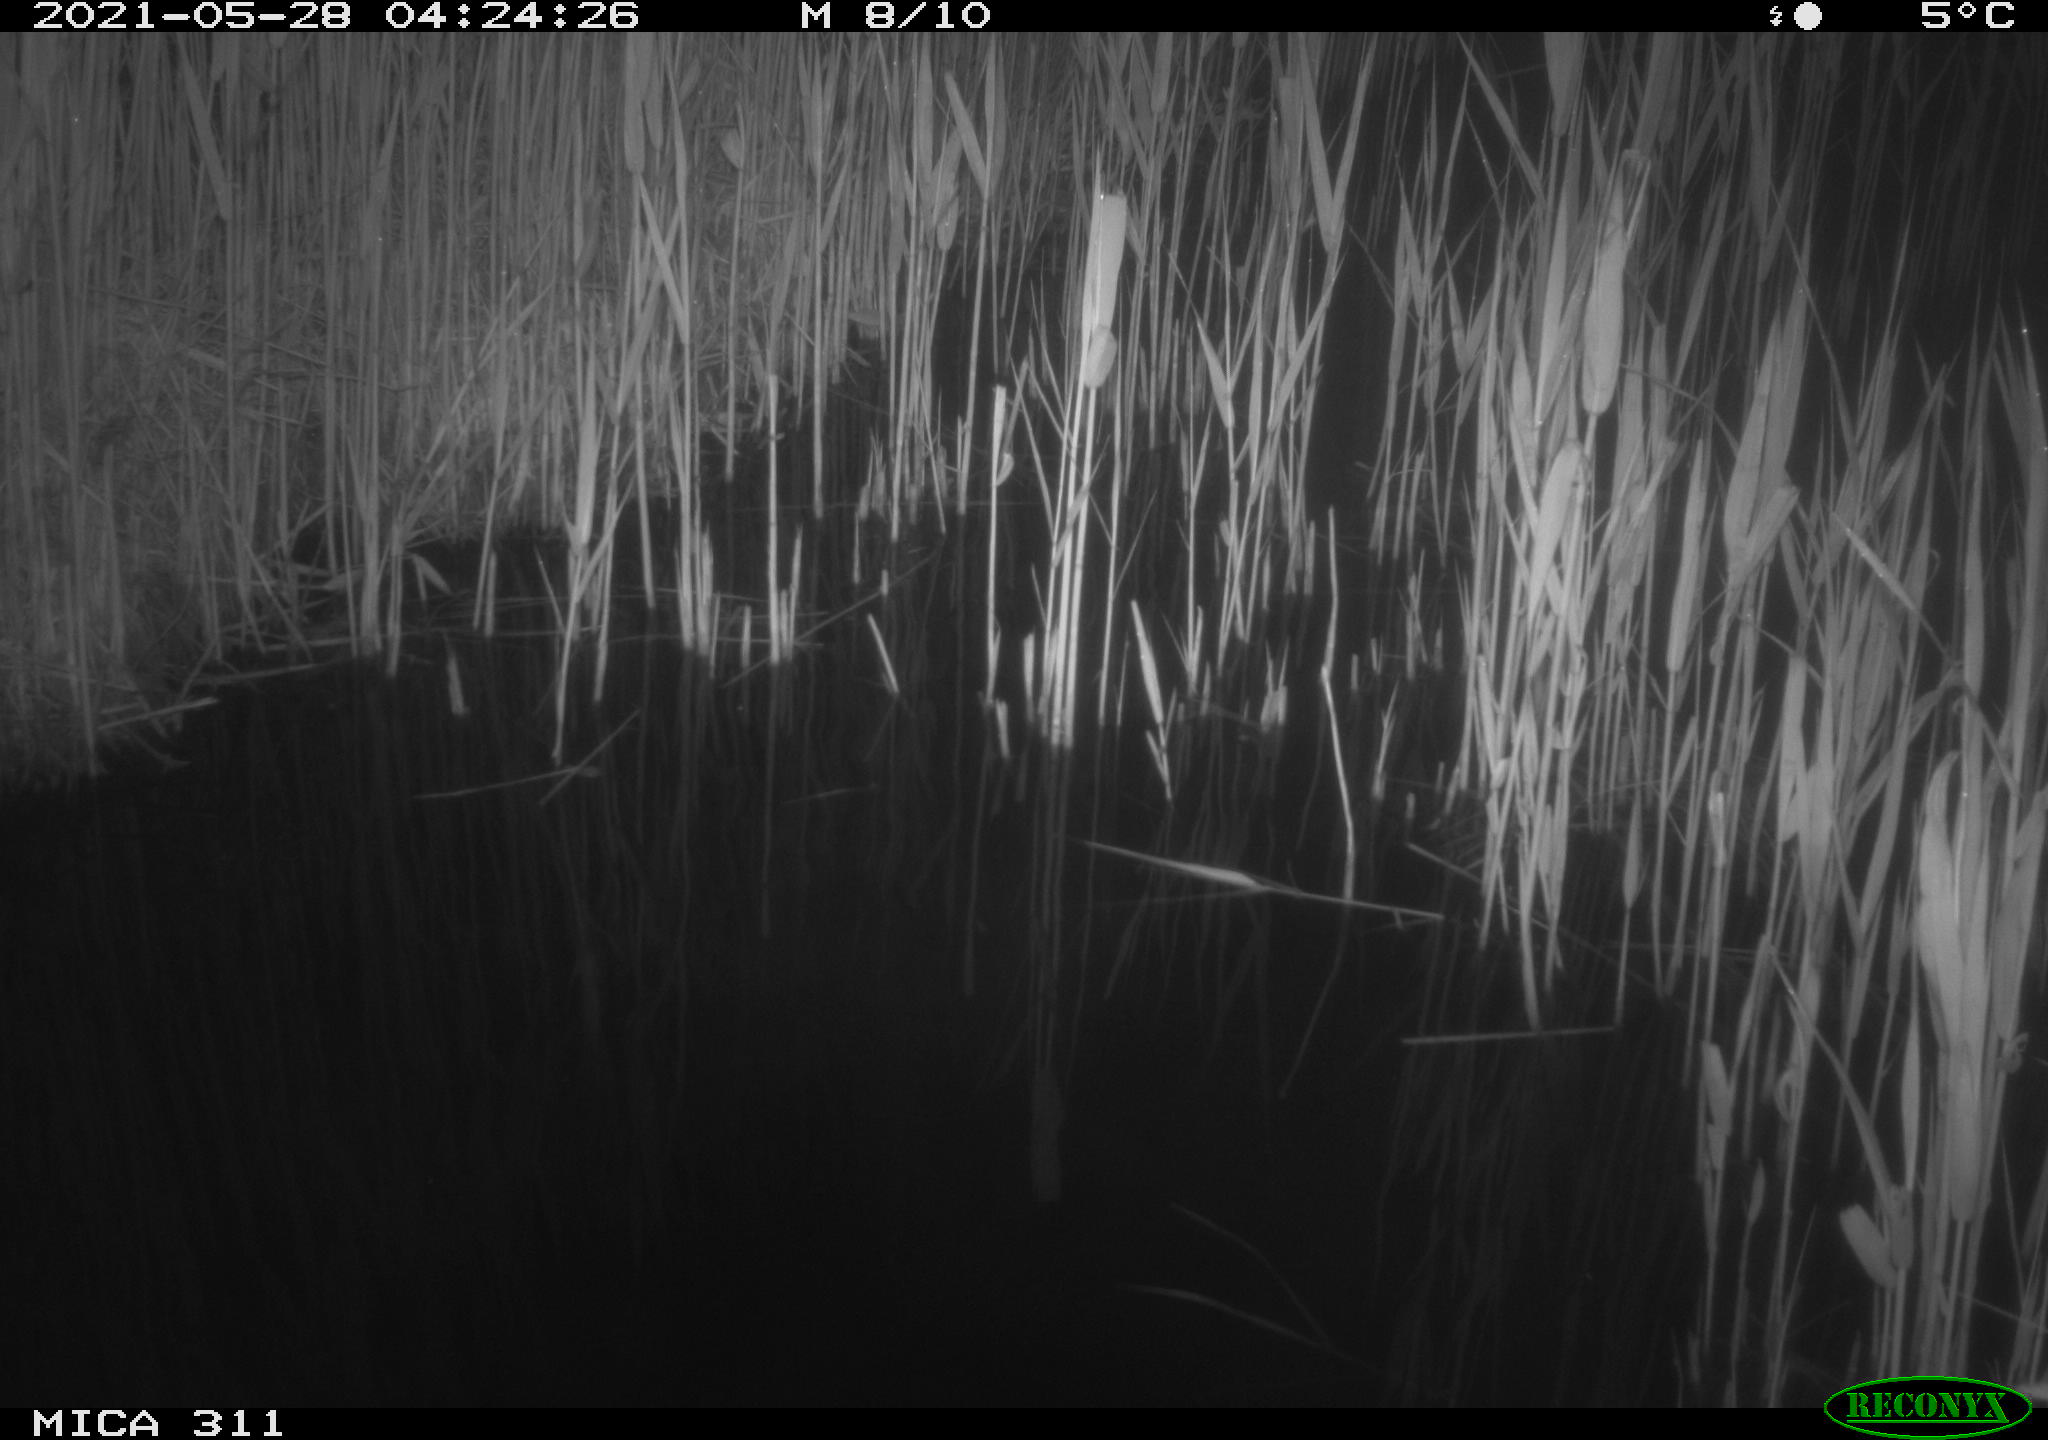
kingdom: Animalia
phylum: Chordata
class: Aves
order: Anseriformes
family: Anatidae
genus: Anas
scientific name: Anas platyrhynchos
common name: Mallard
